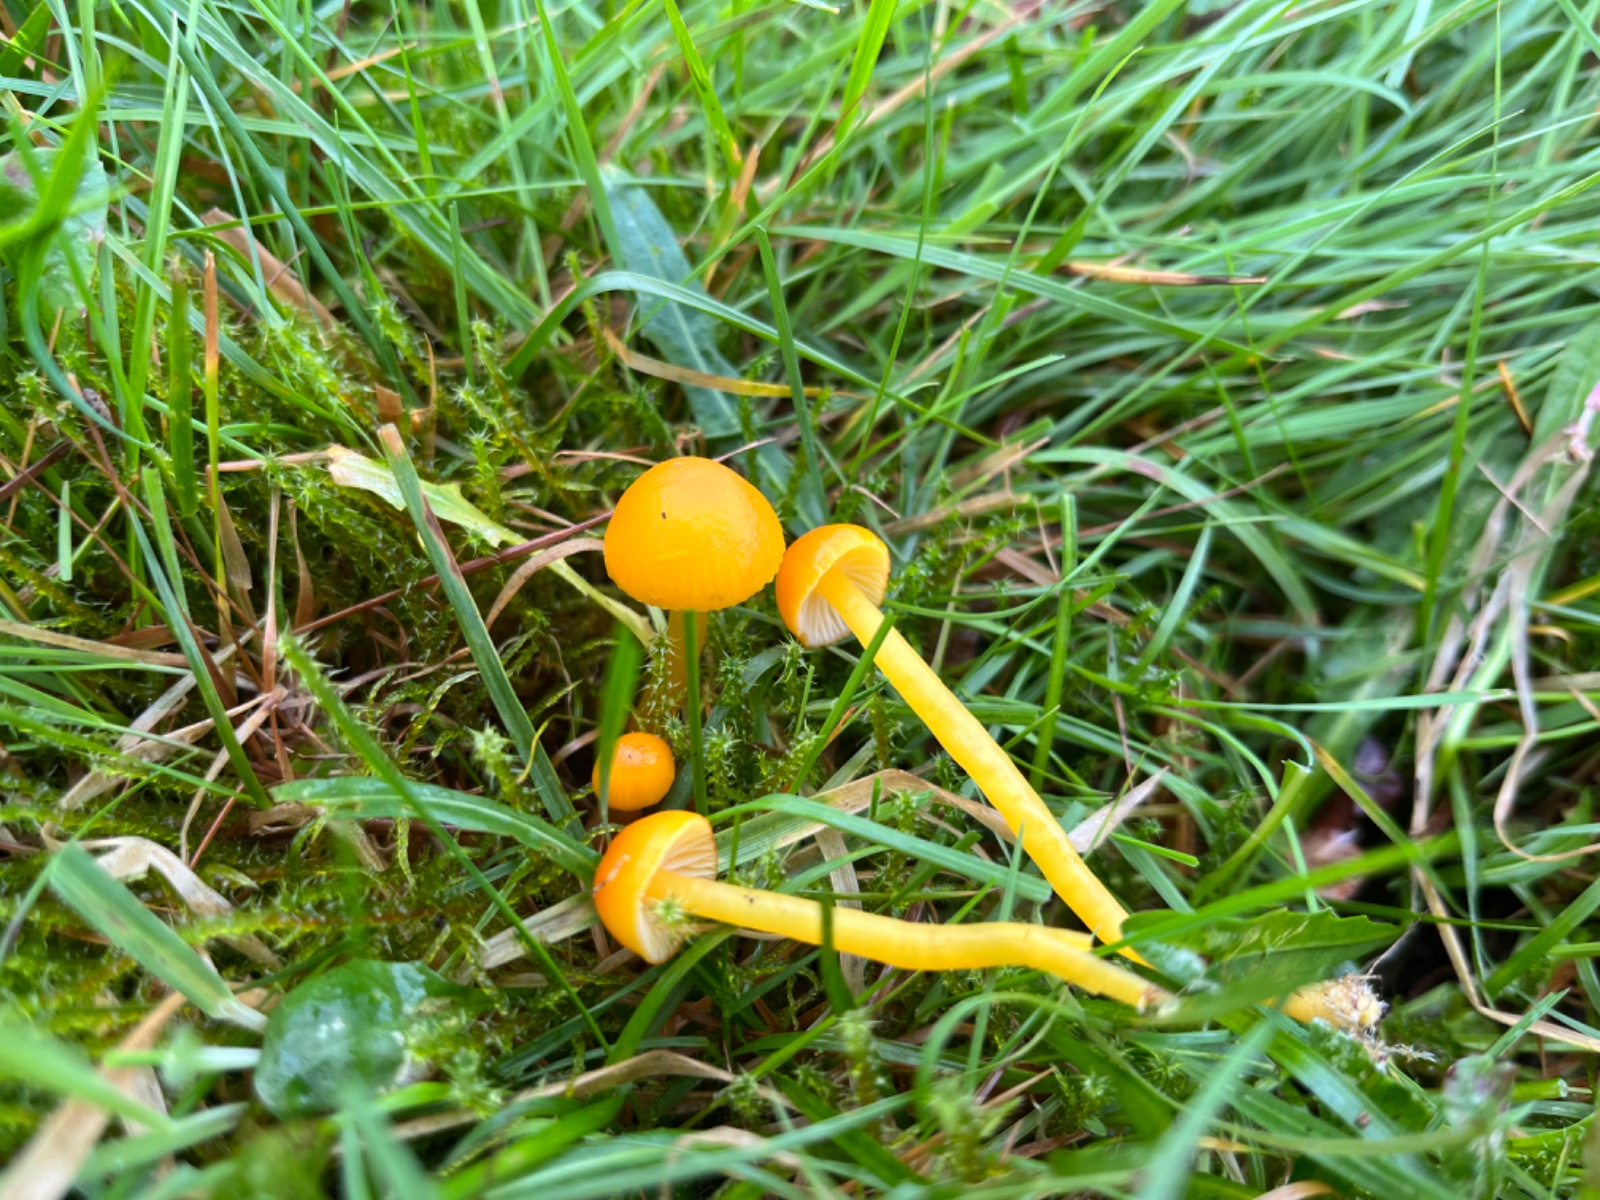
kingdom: Fungi
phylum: Basidiomycota
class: Agaricomycetes
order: Agaricales
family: Hygrophoraceae
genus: Hygrocybe
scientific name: Hygrocybe ceracea
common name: voksgul vokshat
